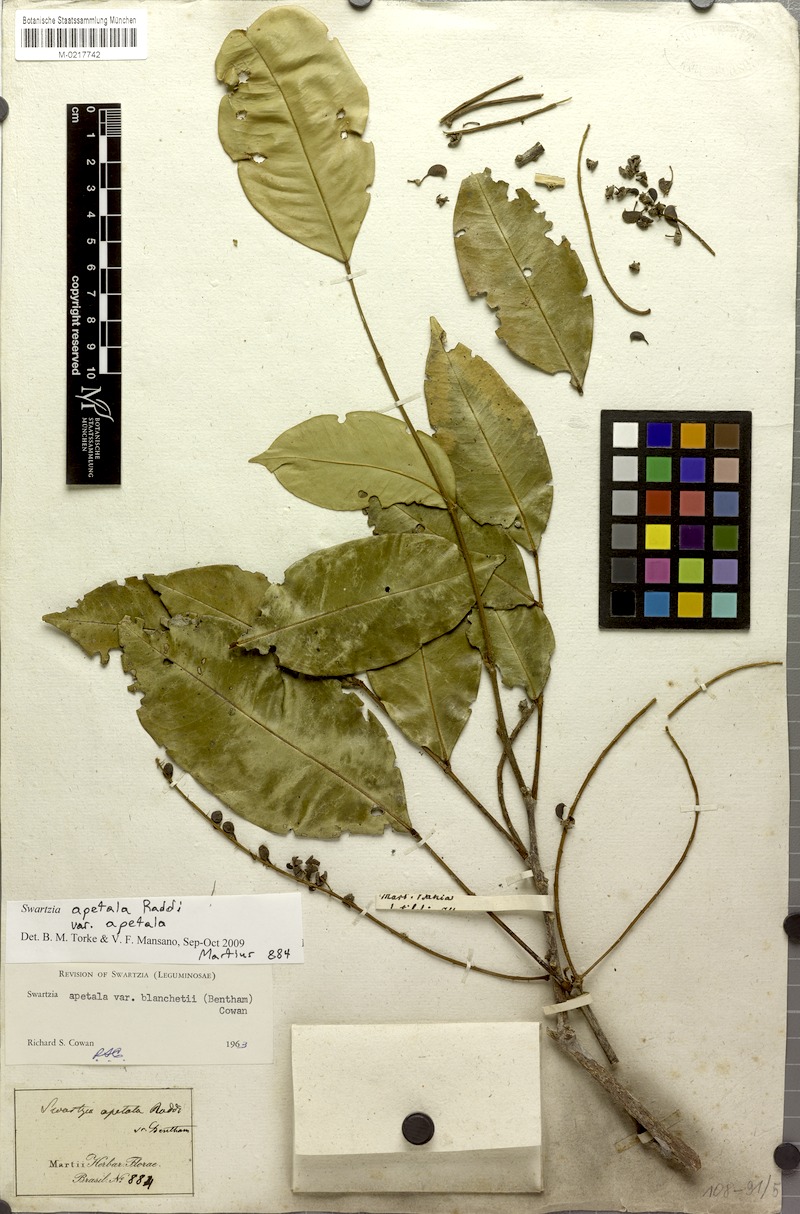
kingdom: Plantae
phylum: Tracheophyta
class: Magnoliopsida
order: Fabales
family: Fabaceae
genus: Swartzia
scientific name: Swartzia apetala
